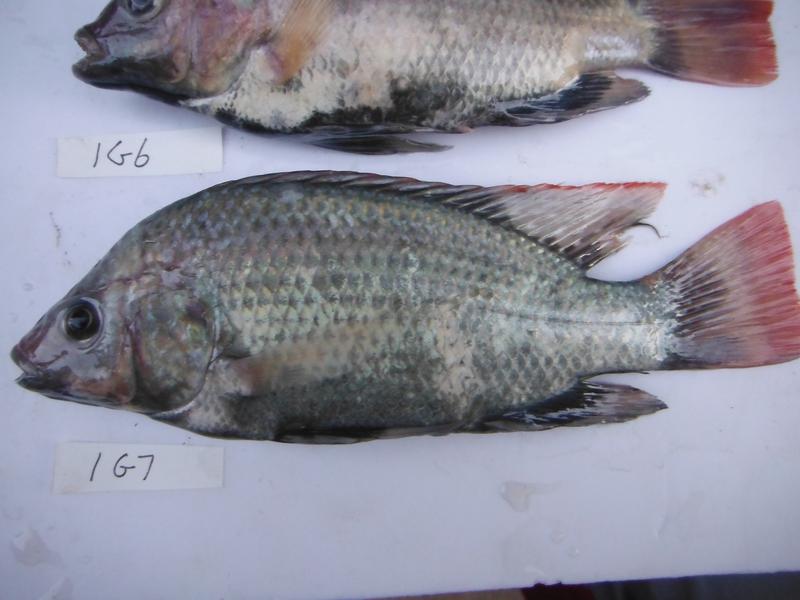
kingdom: Animalia
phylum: Chordata
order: Perciformes
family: Cichlidae
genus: Oreochromis
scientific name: Oreochromis rukwaensis
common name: Lake rukwa tilapia
